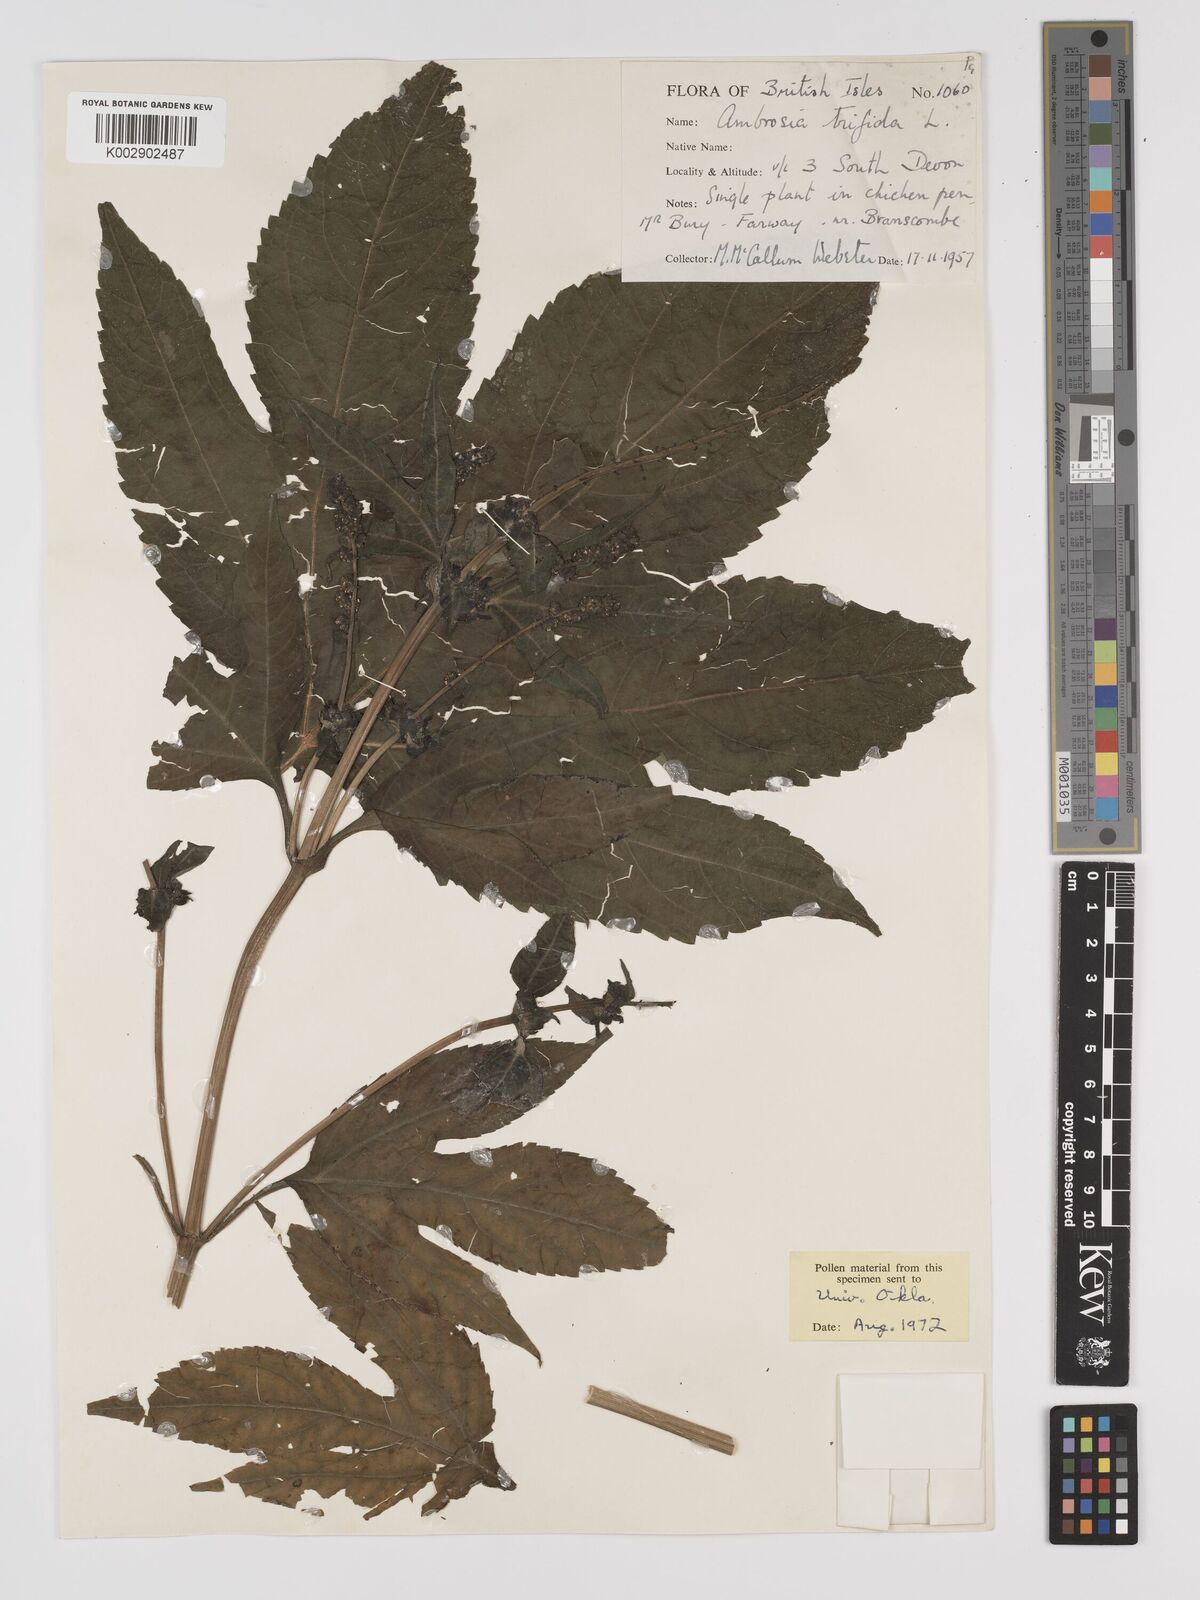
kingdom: Plantae
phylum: Tracheophyta
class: Magnoliopsida
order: Asterales
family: Asteraceae
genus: Ambrosia
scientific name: Ambrosia trifida
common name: Giant ragweed
